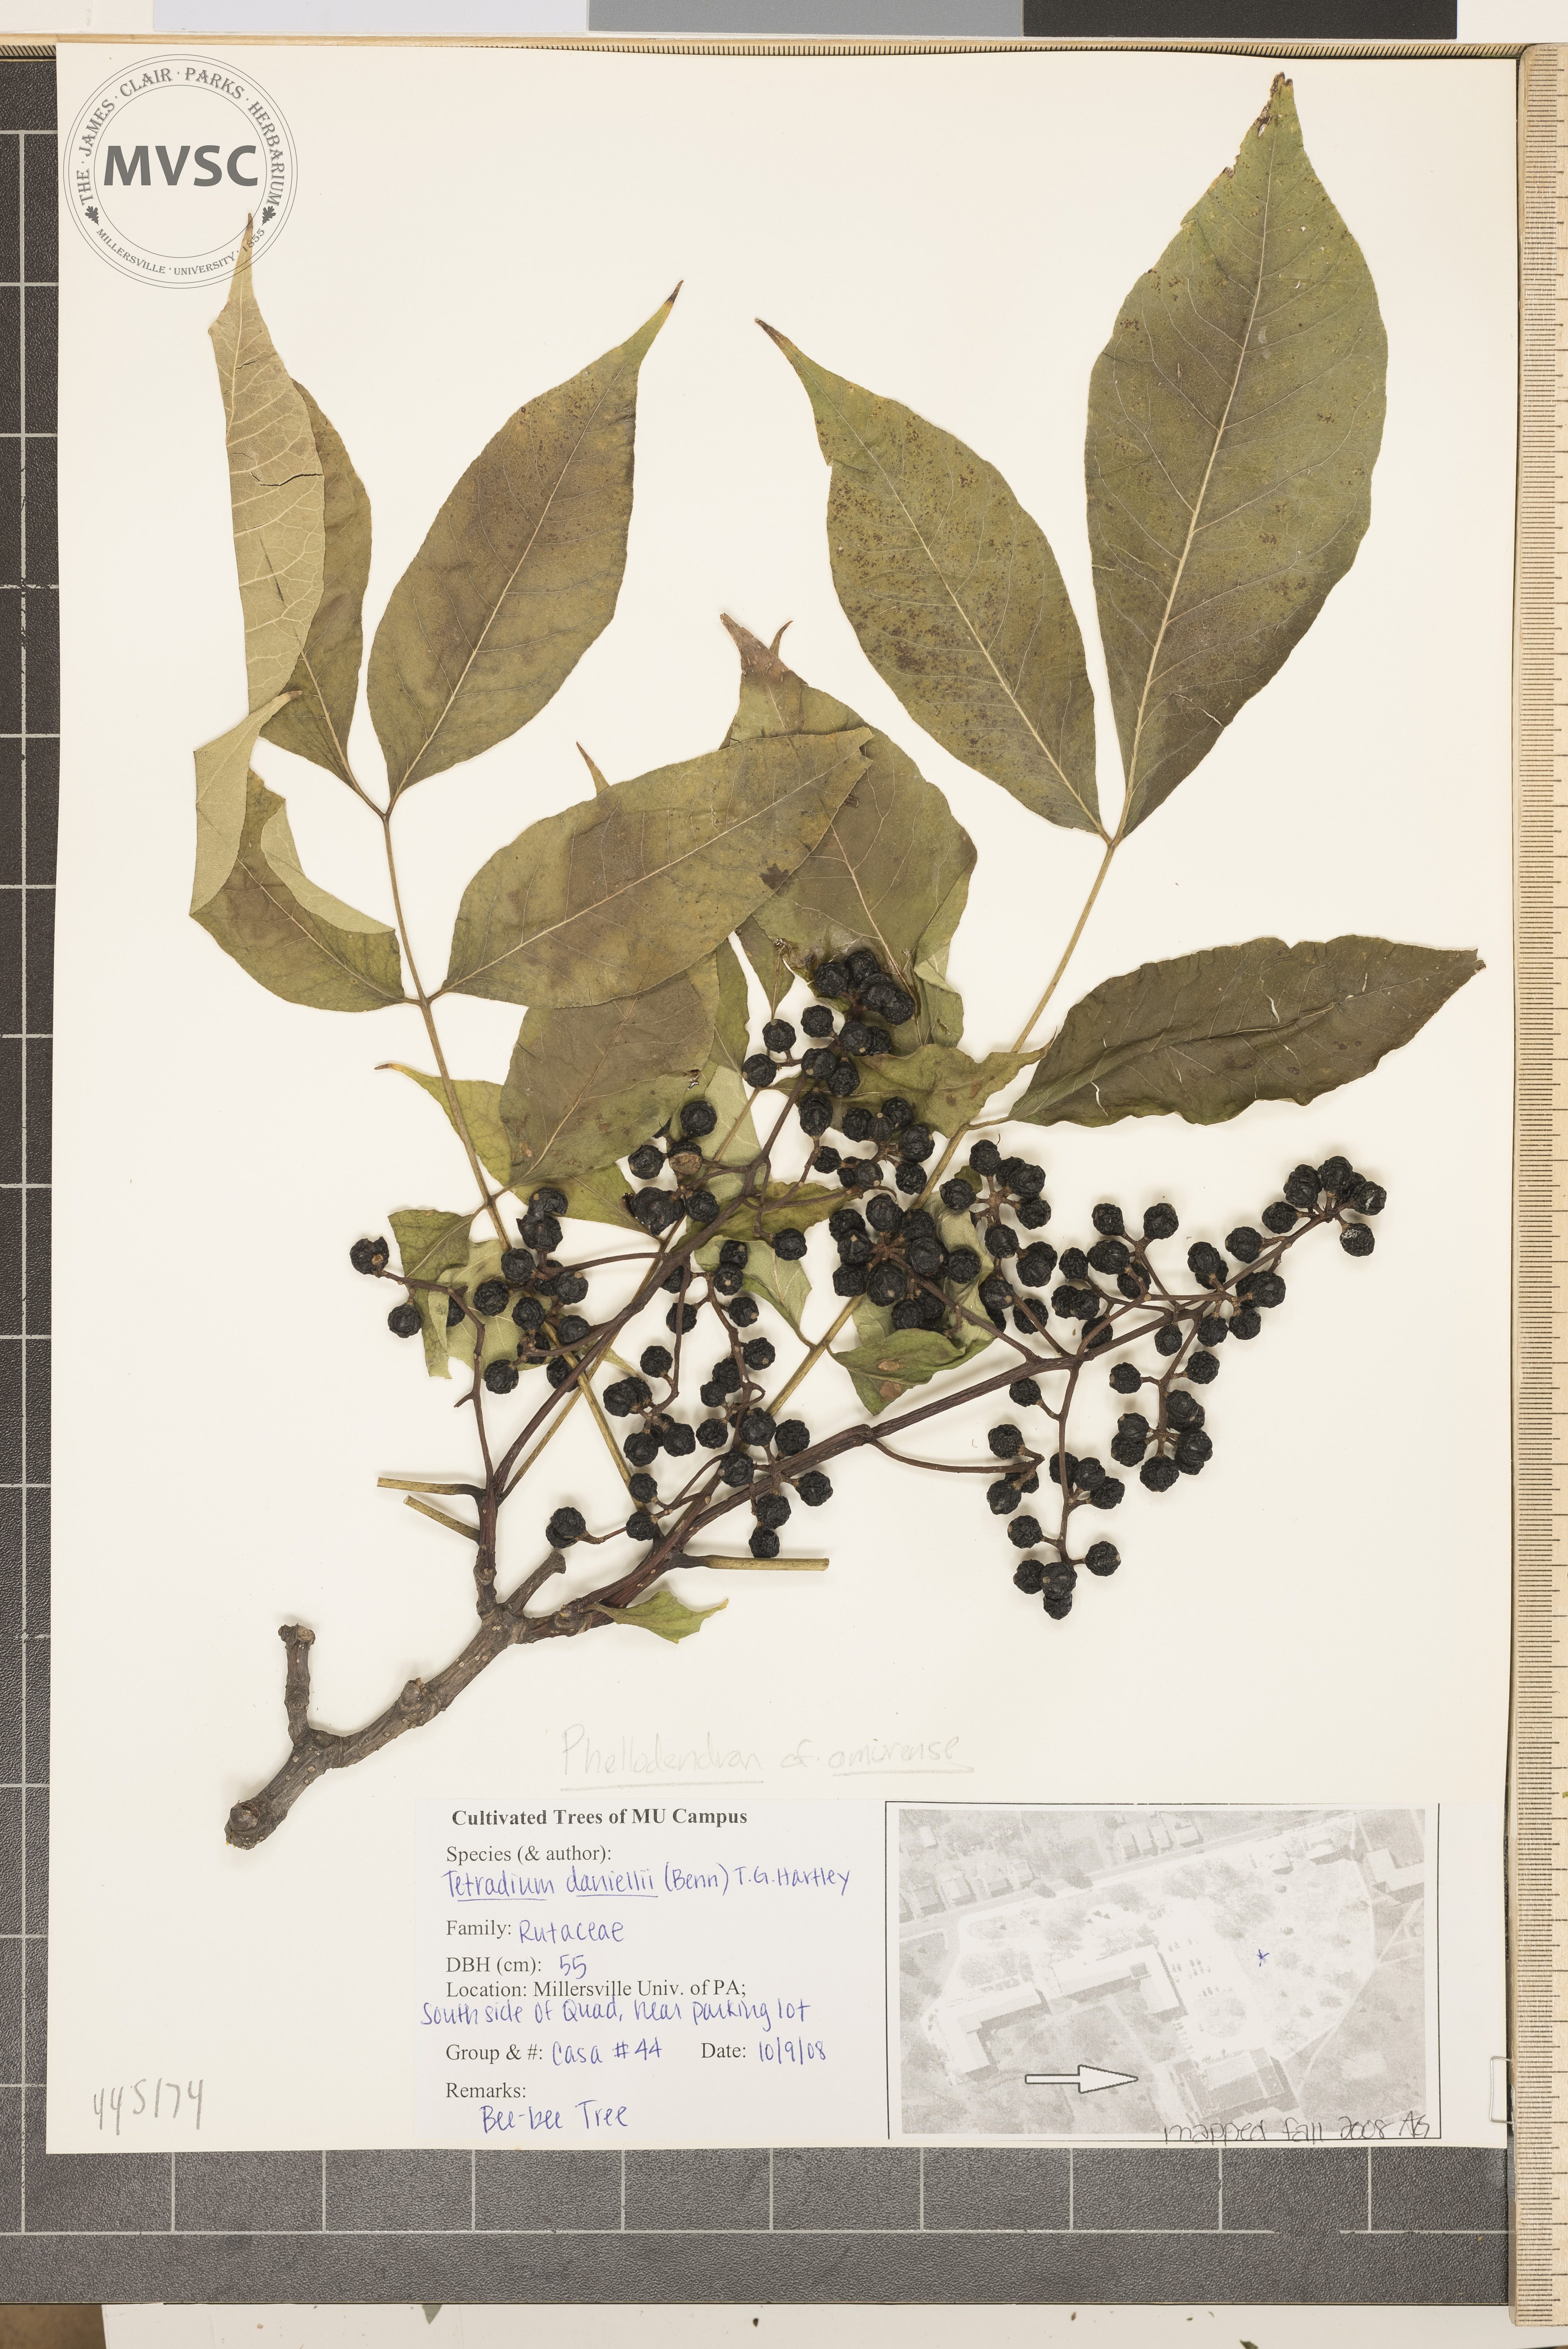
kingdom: Plantae
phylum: Tracheophyta
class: Magnoliopsida
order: Sapindales
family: Rutaceae
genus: Phellodendron
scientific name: Phellodendron amurense
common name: Amur corktree
